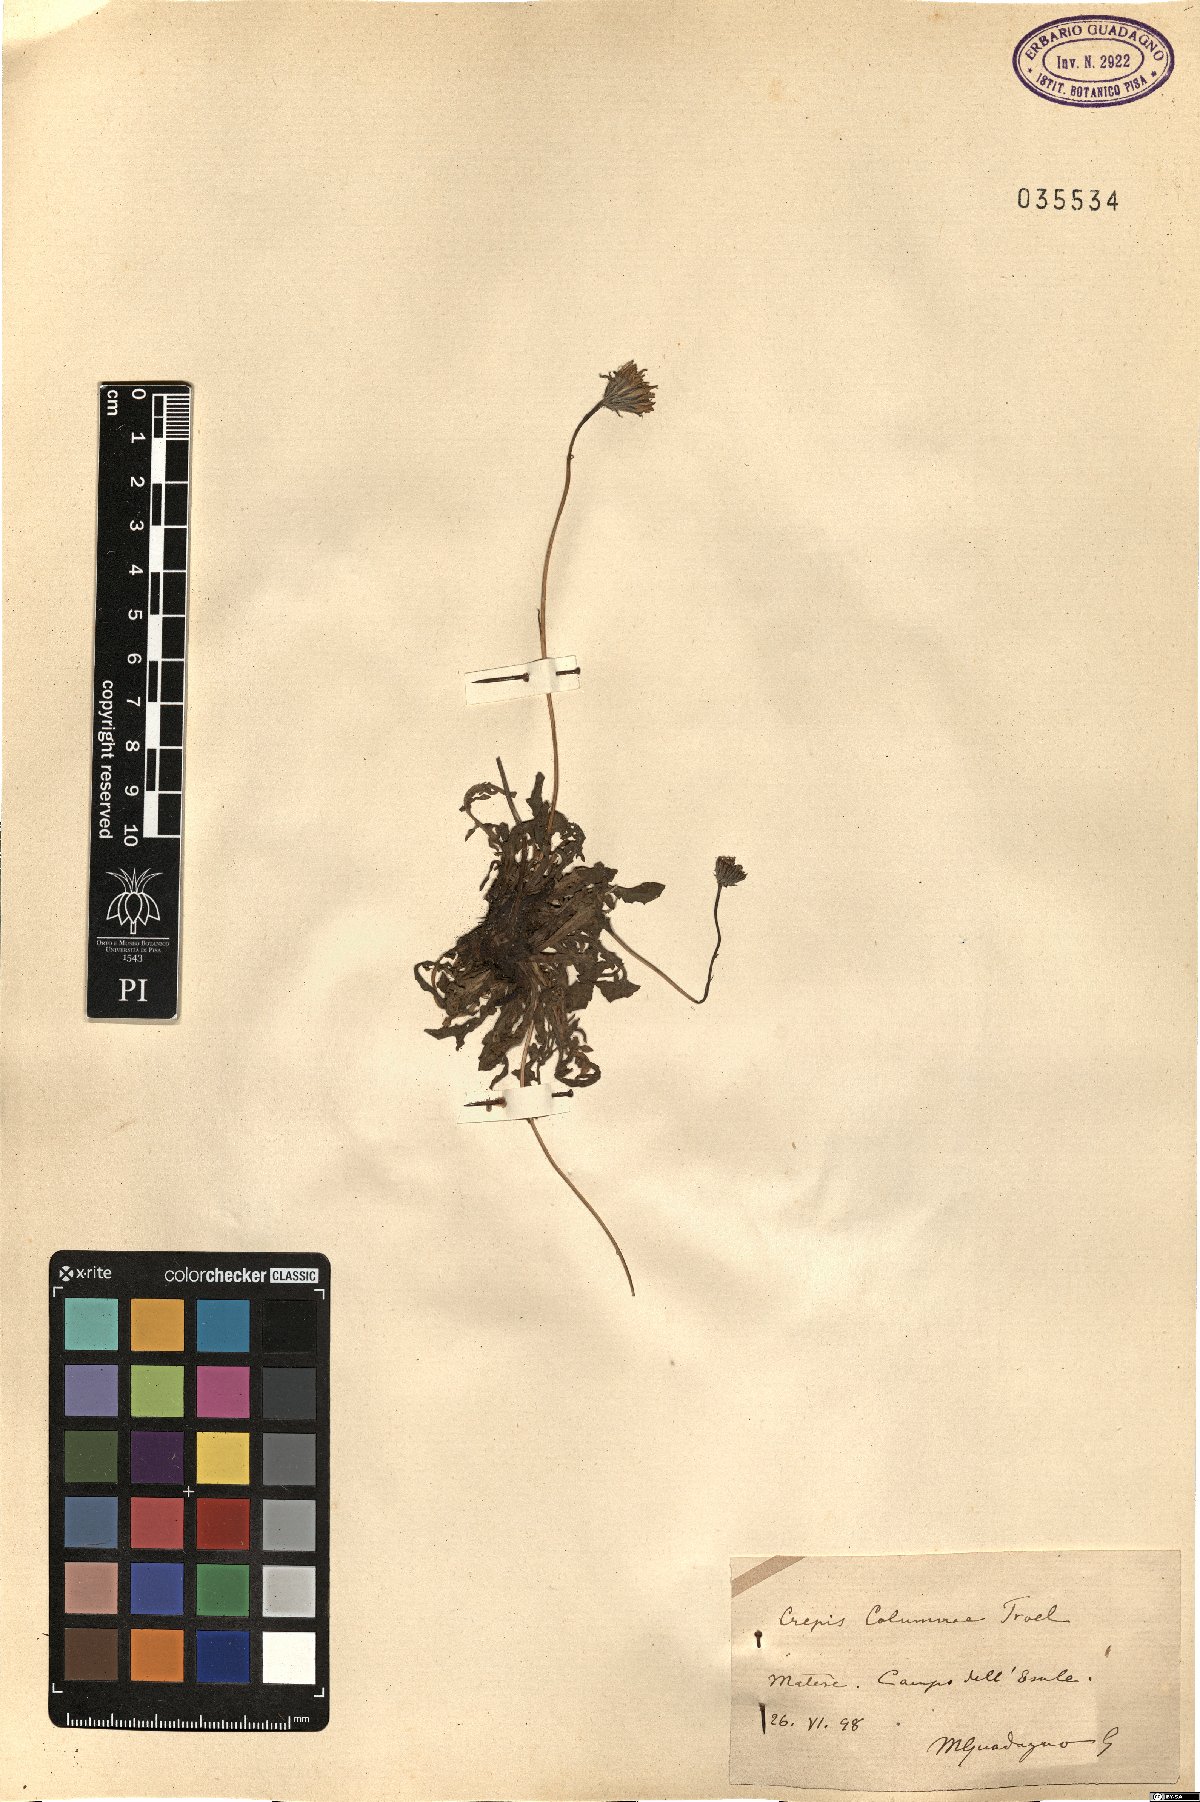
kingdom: Plantae
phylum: Tracheophyta
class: Magnoliopsida
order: Asterales
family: Asteraceae
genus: Crepis
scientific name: Crepis aurea
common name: Golden hawk's-beard
